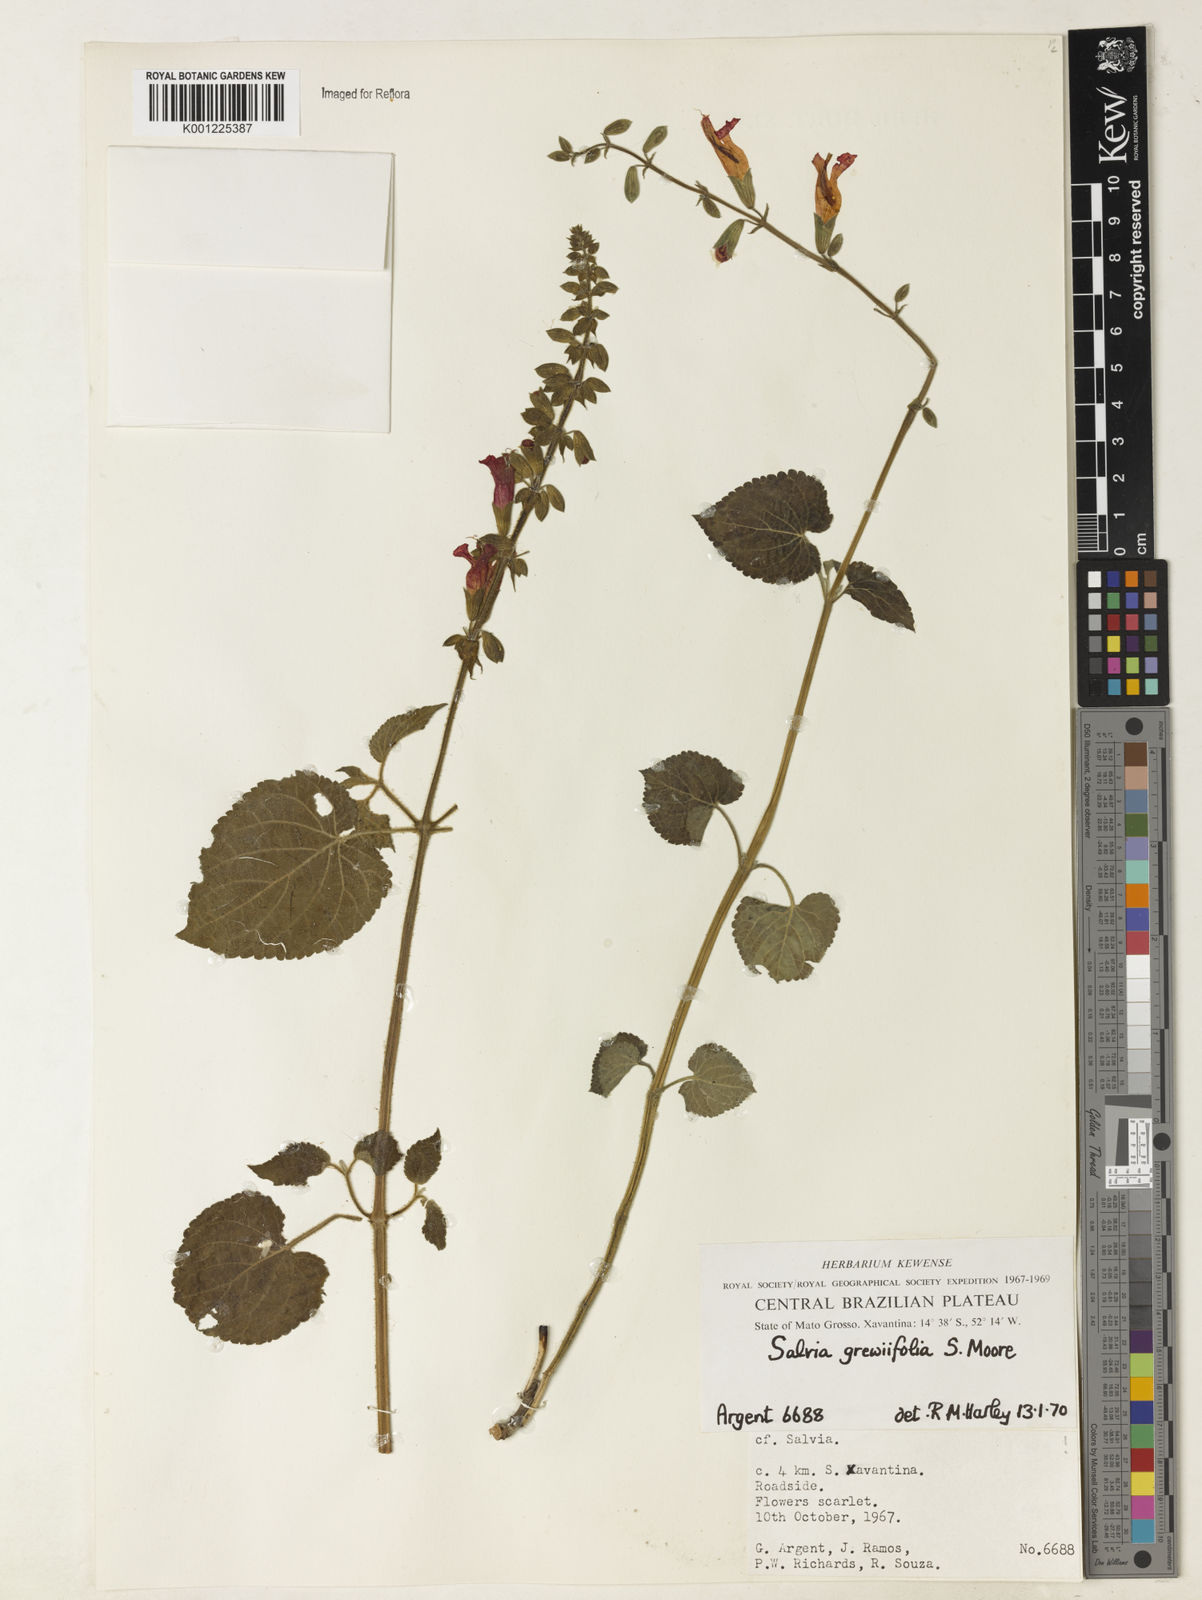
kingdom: Plantae
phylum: Tracheophyta
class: Magnoliopsida
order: Lamiales
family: Lamiaceae
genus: Salvia
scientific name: Salvia grewiifolia
